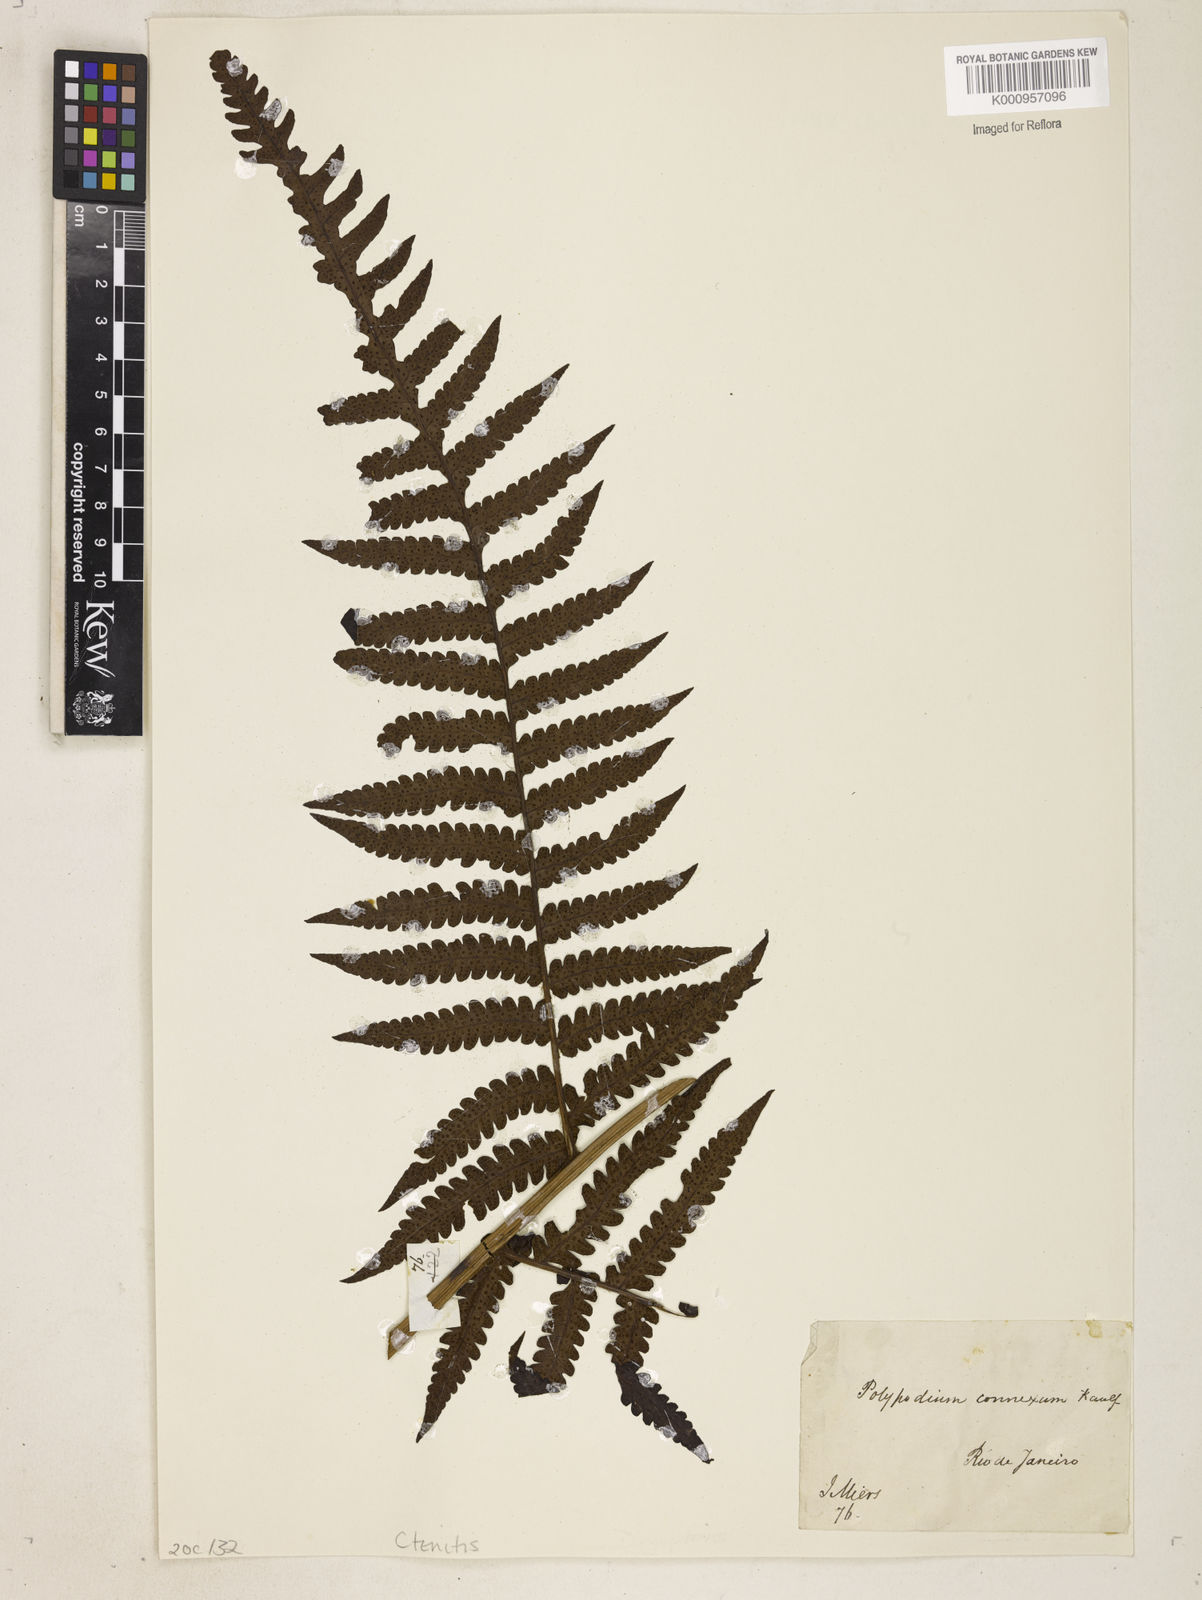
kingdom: Plantae
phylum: Tracheophyta
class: Polypodiopsida
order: Polypodiales
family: Dryopteridaceae
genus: Megalastrum
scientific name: Megalastrum connexum
